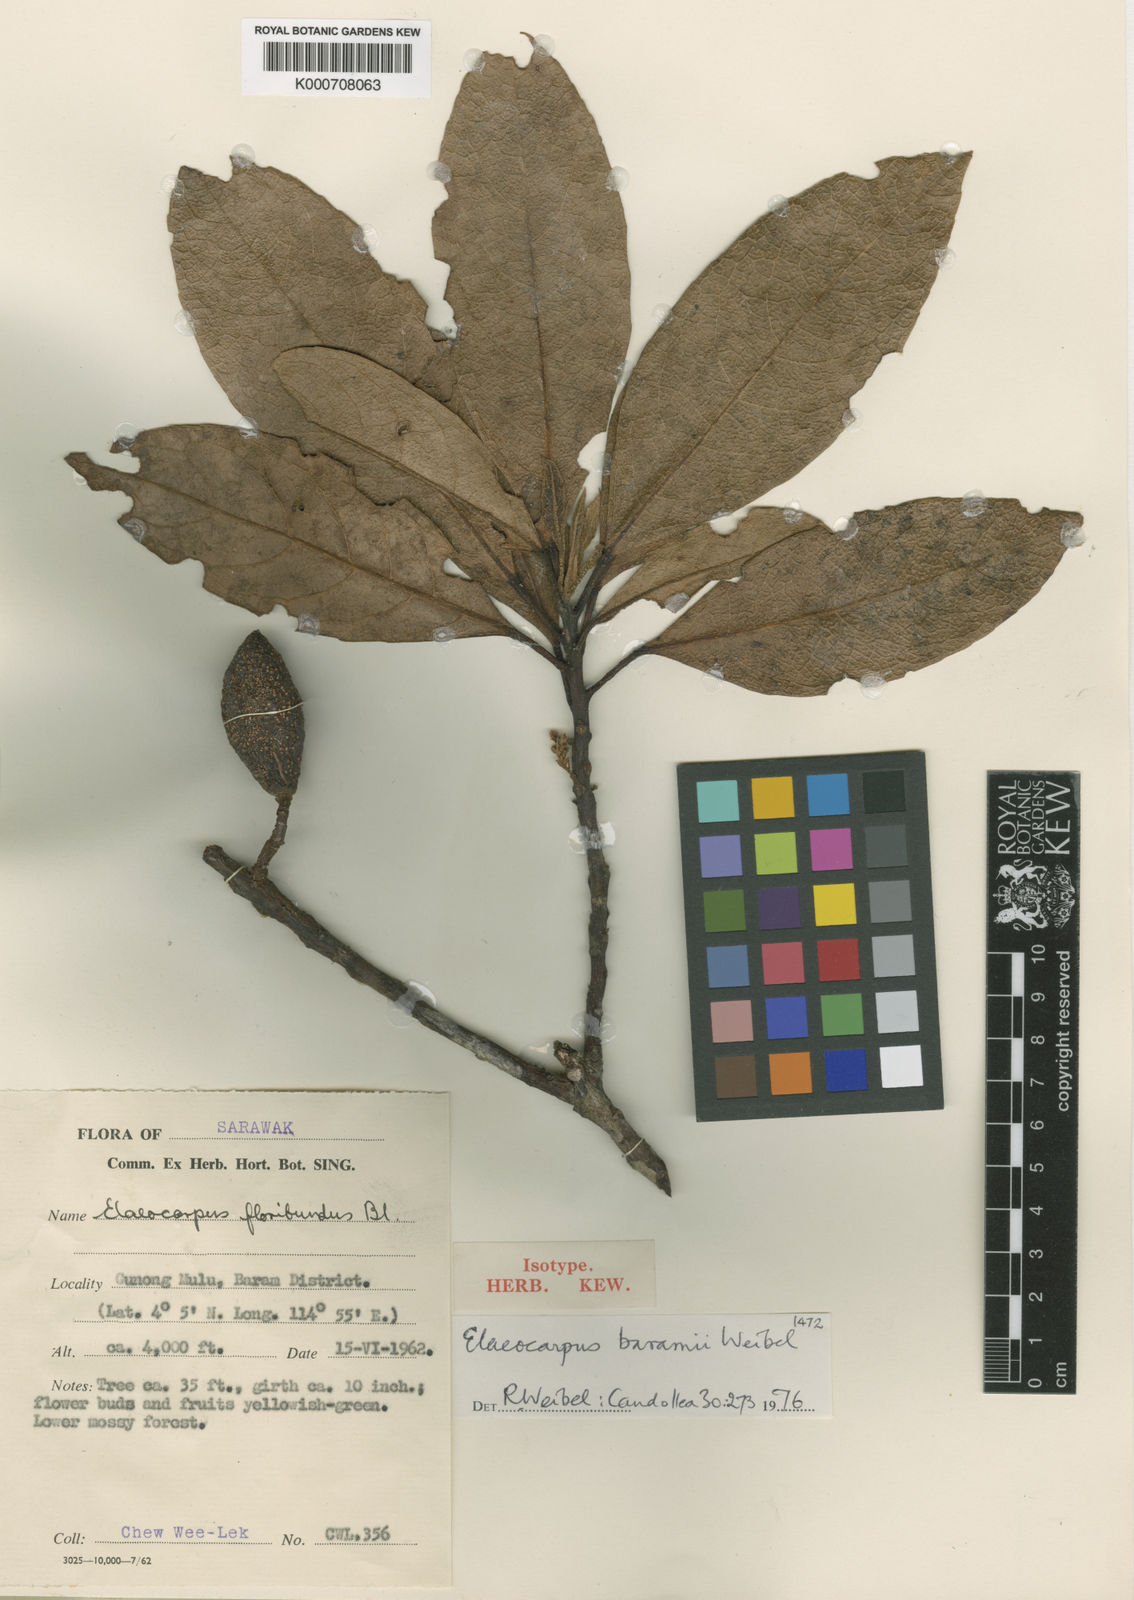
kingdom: Plantae
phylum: Tracheophyta
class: Magnoliopsida
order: Oxalidales
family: Elaeocarpaceae
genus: Elaeocarpus
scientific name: Elaeocarpus baramii
